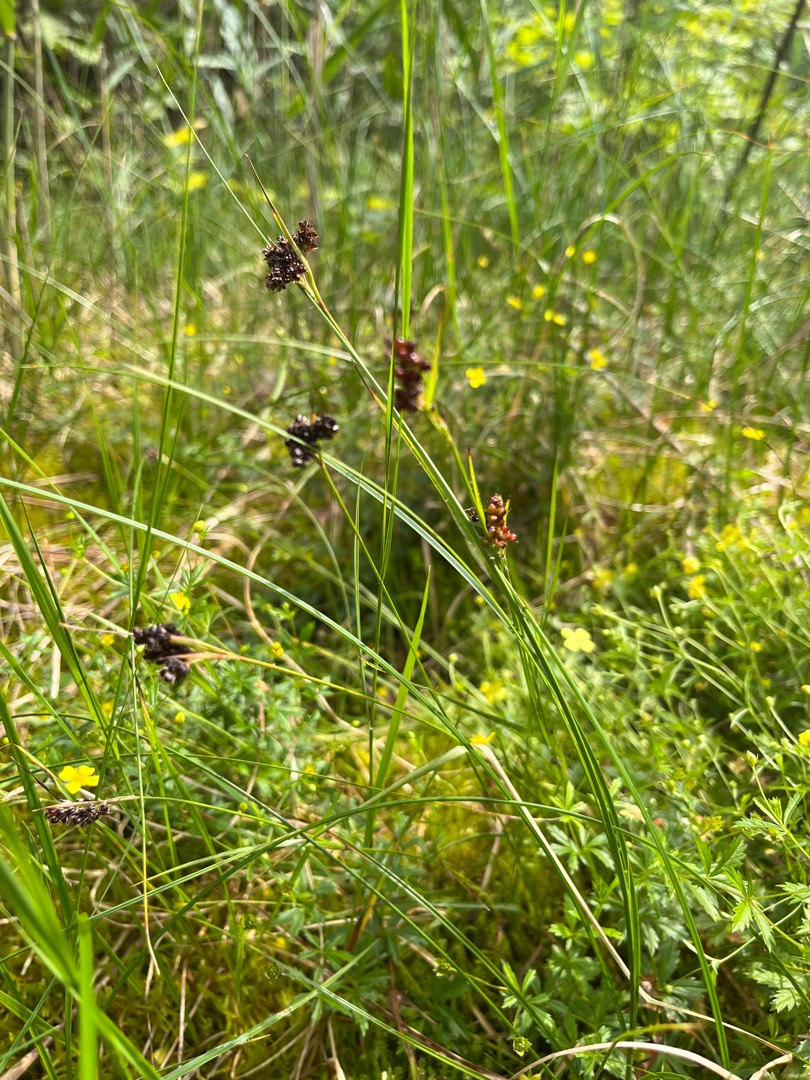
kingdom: Plantae
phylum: Tracheophyta
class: Liliopsida
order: Poales
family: Juncaceae
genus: Luzula
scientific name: Luzula multiflora
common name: Mangeblomstret frytle
